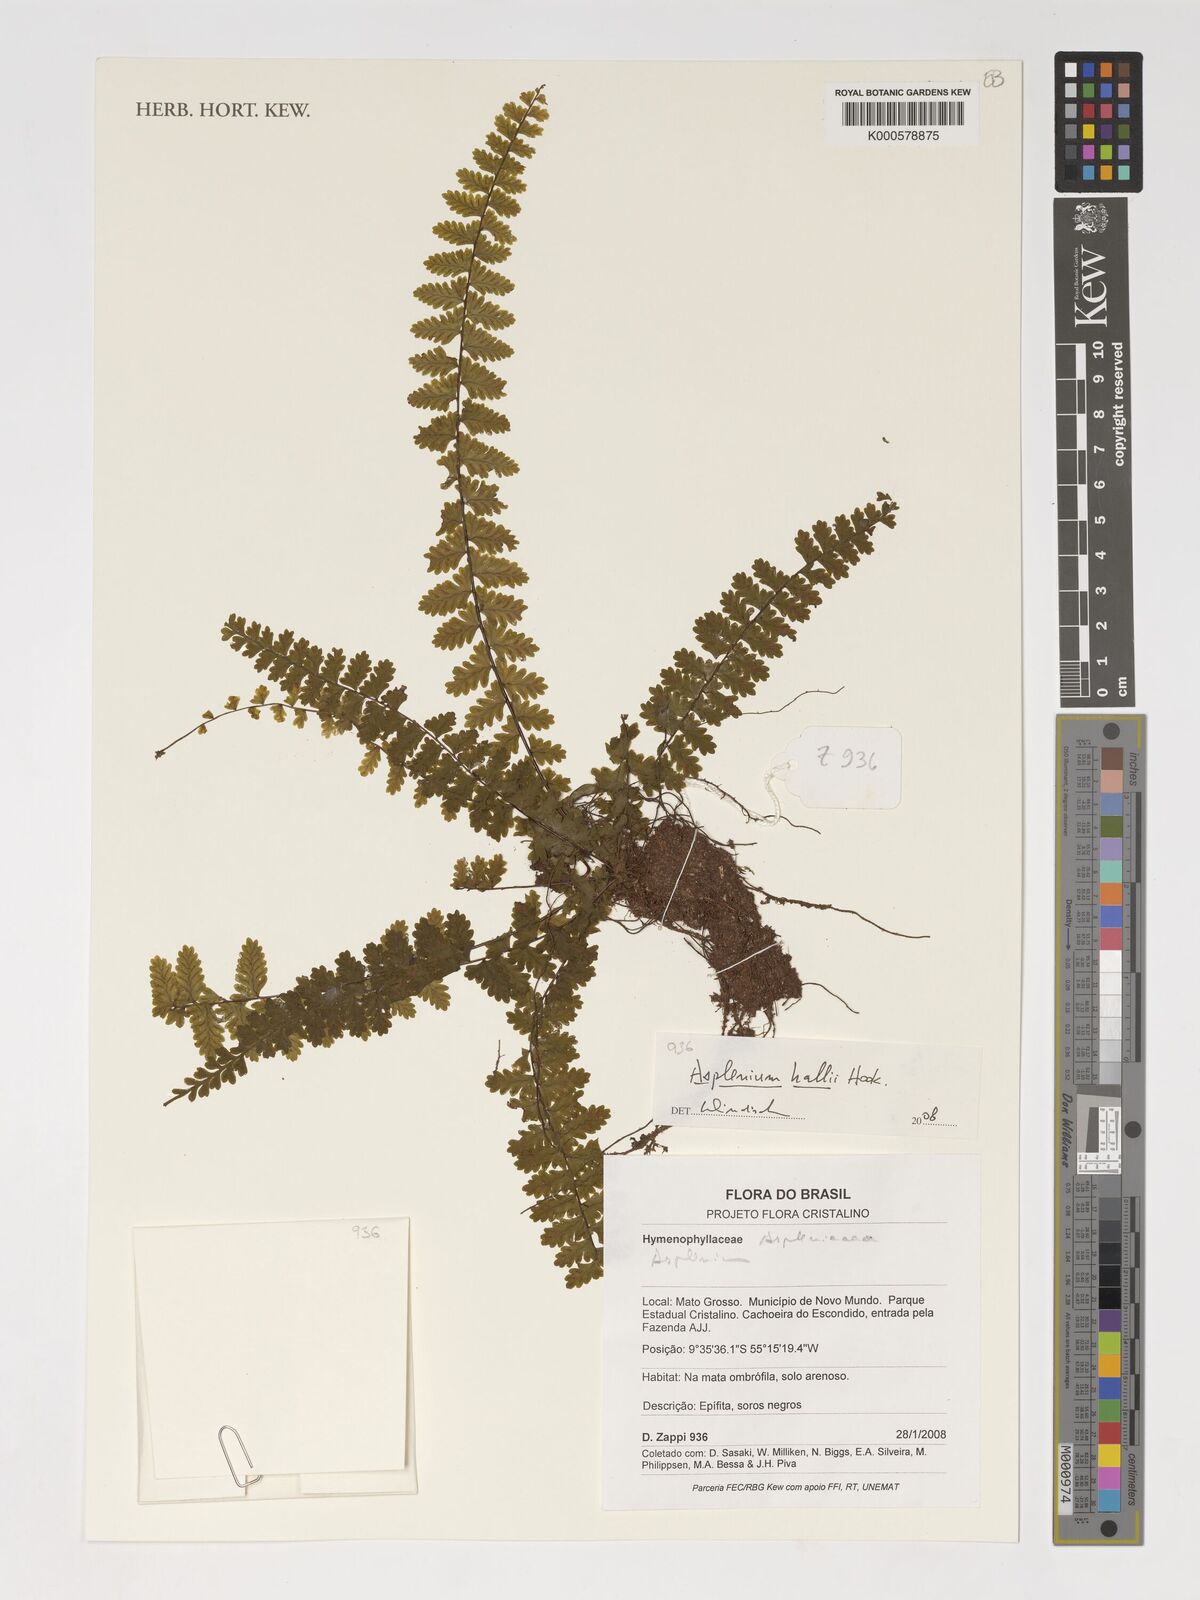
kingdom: Plantae
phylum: Tracheophyta
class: Polypodiopsida
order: Polypodiales
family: Aspleniaceae
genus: Asplenium
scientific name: Asplenium hallii
